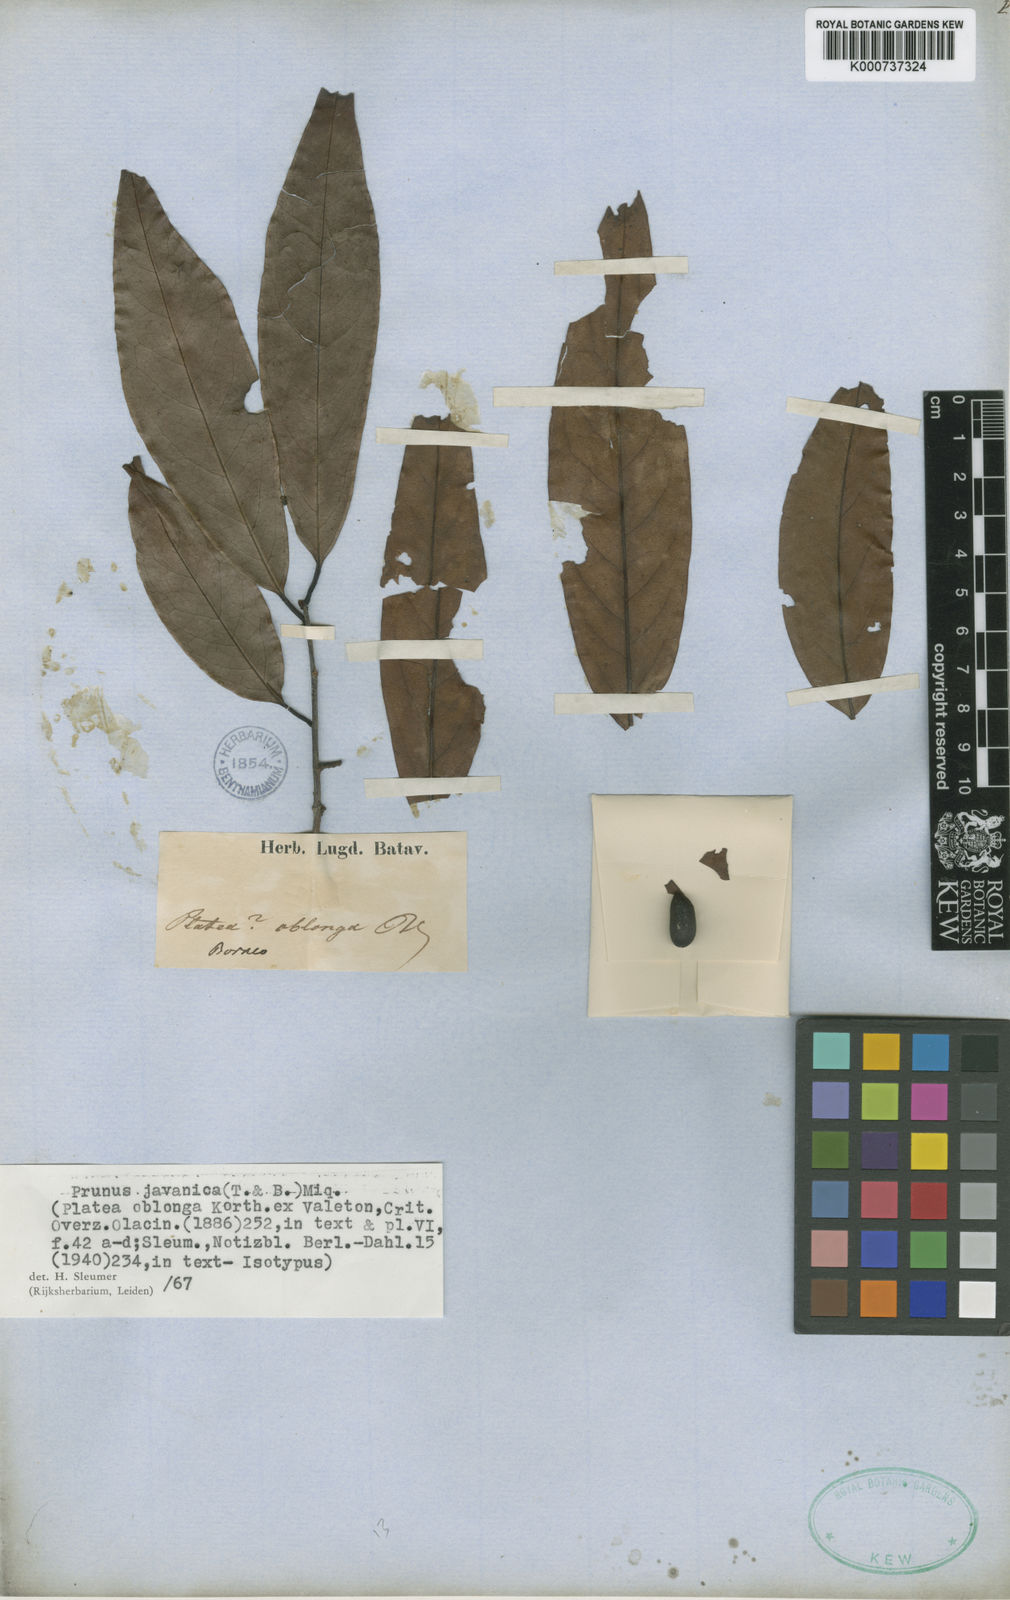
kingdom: Plantae
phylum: Tracheophyta
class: Magnoliopsida
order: Rosales
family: Rosaceae
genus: Prunus
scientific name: Prunus javanica
